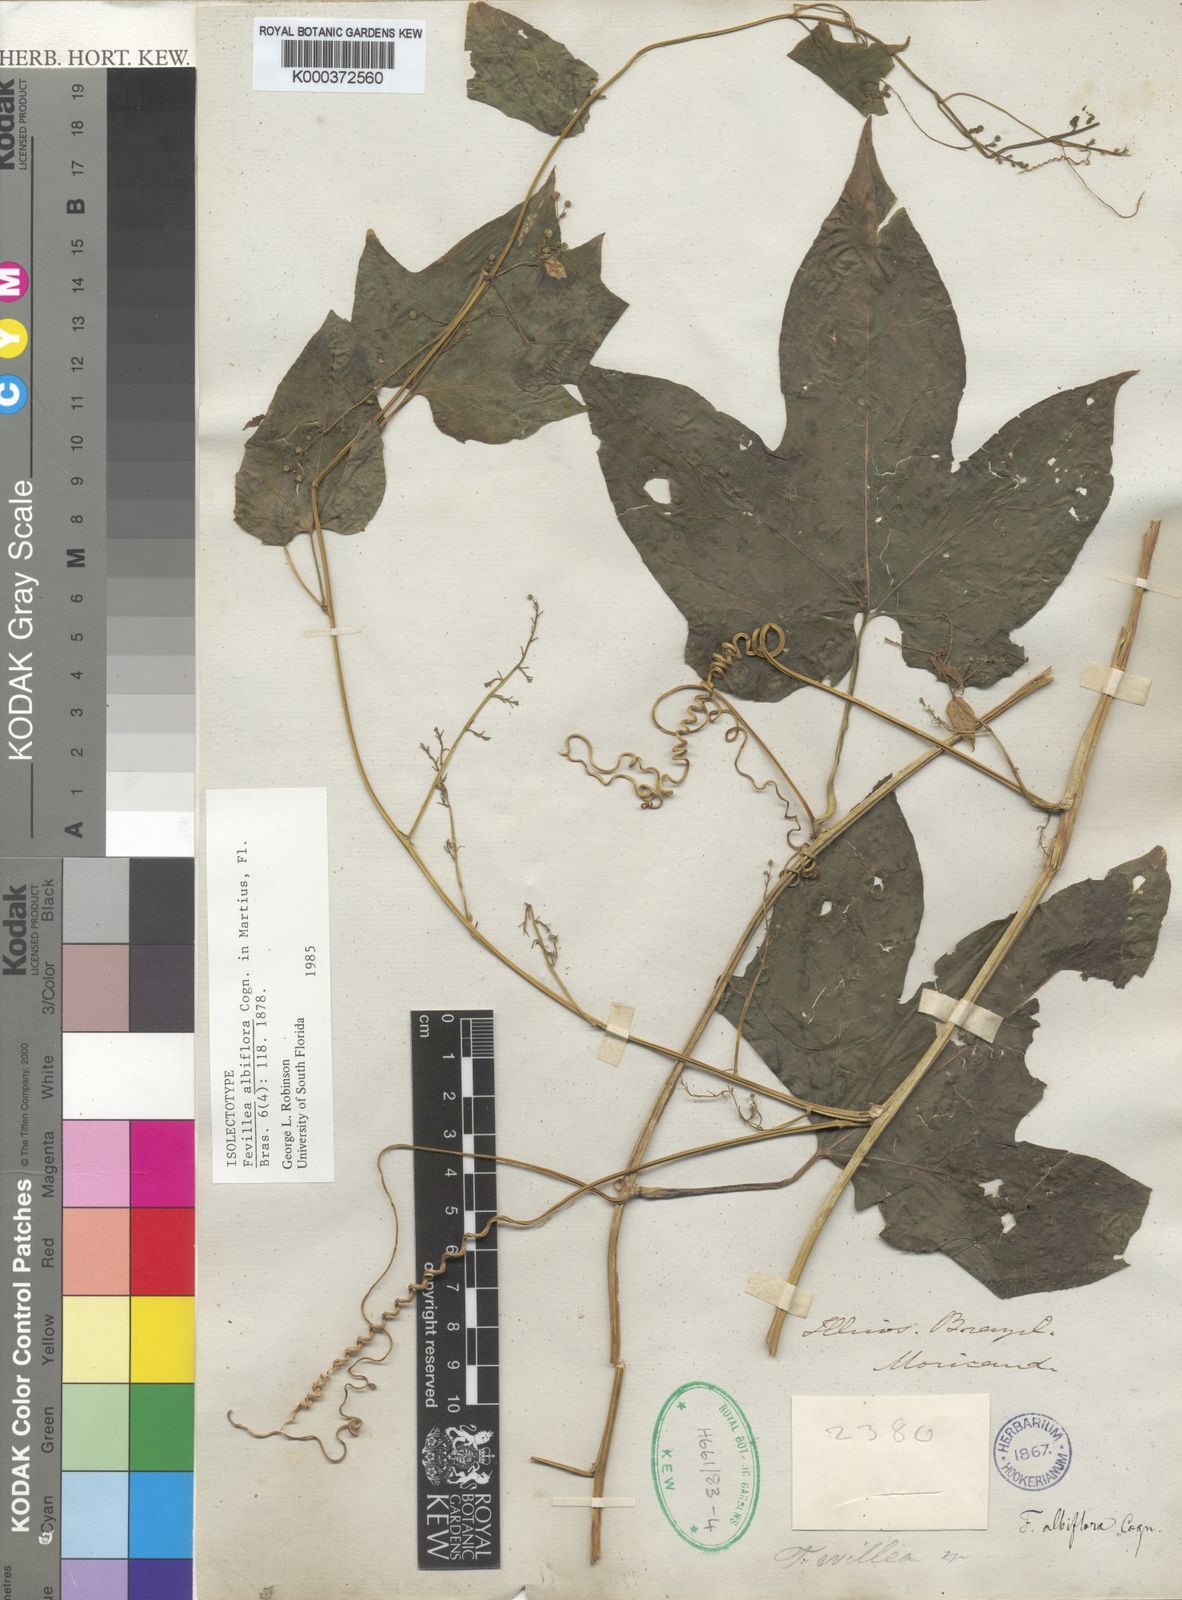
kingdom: Plantae
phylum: Tracheophyta
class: Magnoliopsida
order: Cucurbitales
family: Cucurbitaceae
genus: Fevillea
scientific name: Fevillea trilobata
